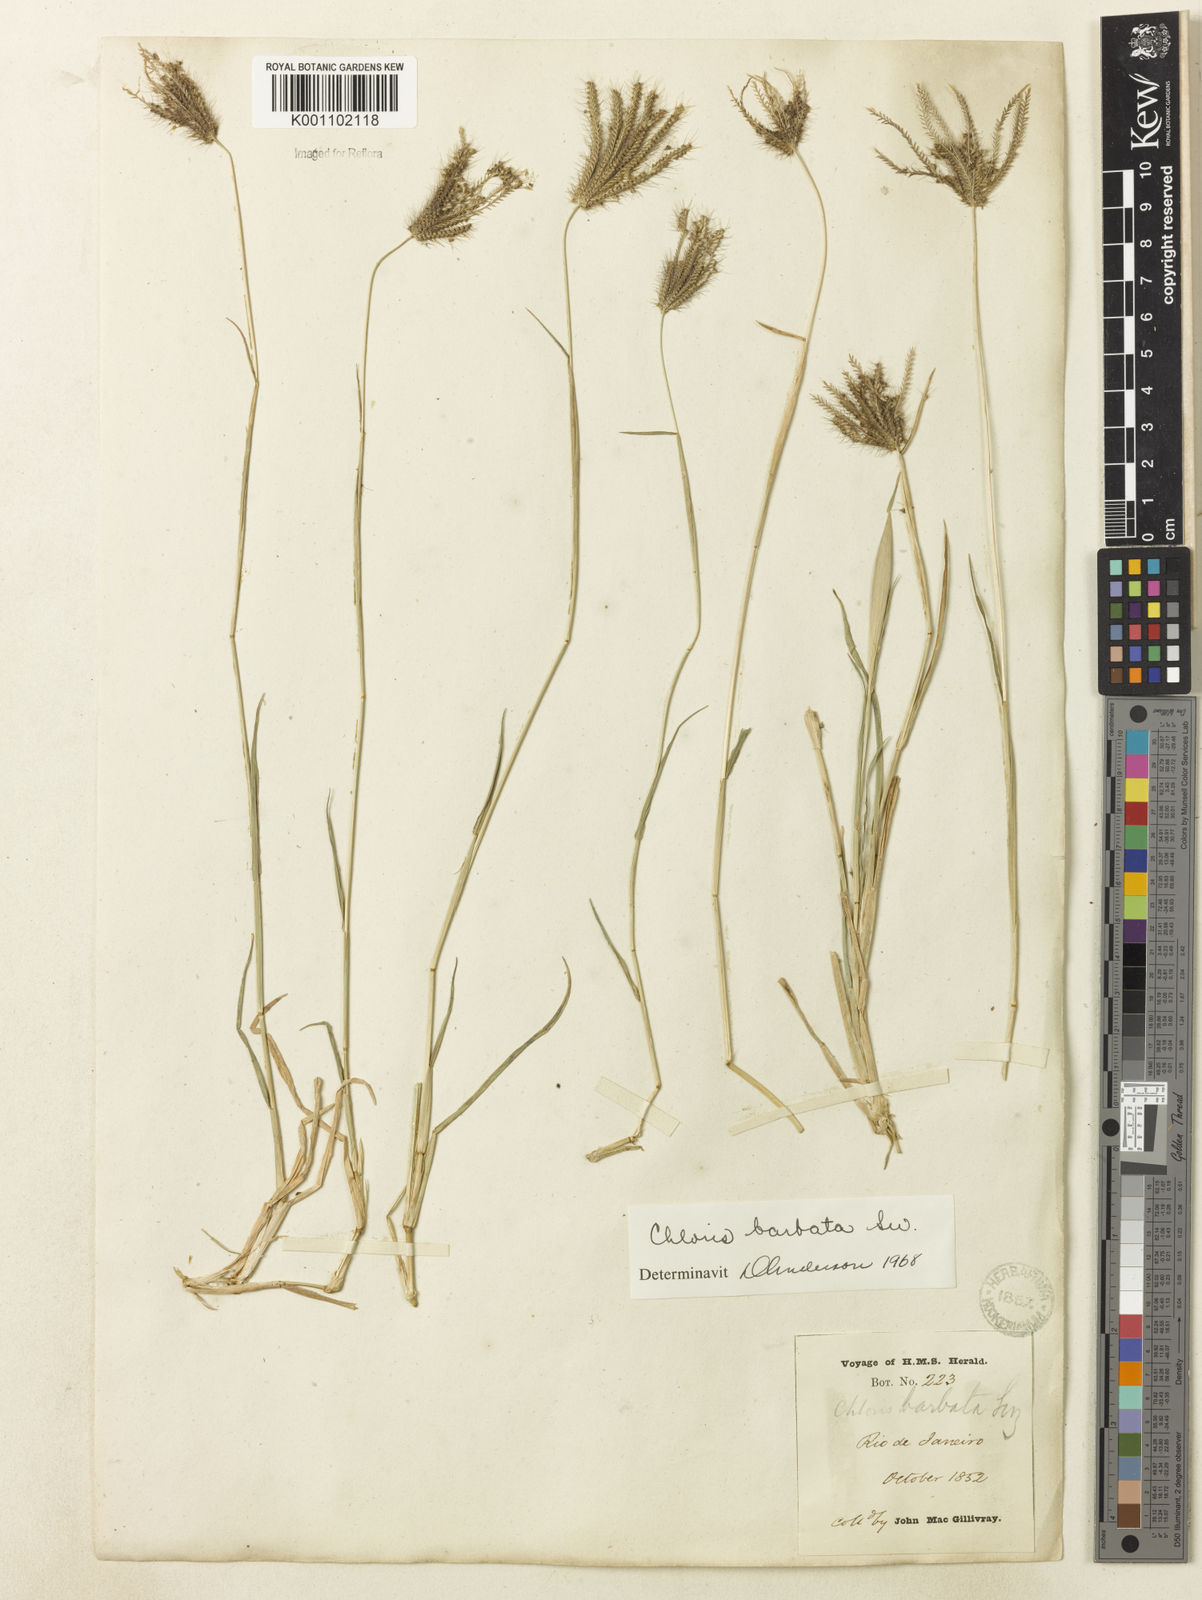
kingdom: Plantae
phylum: Tracheophyta
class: Liliopsida
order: Poales
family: Poaceae
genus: Chloris
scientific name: Chloris barbata
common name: Swollen fingergrass
